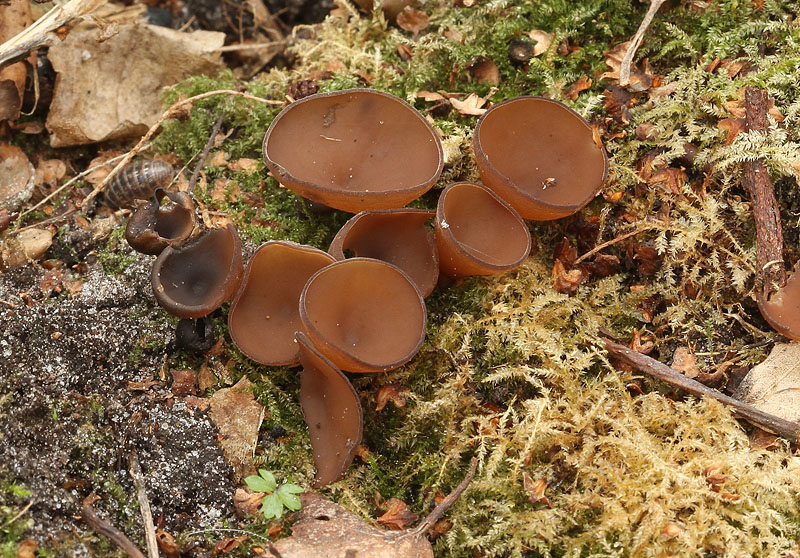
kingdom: Fungi
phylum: Ascomycota
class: Leotiomycetes
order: Helotiales
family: Sclerotiniaceae
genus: Dumontinia
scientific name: Dumontinia tuberosa
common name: anemone-knoldskive
